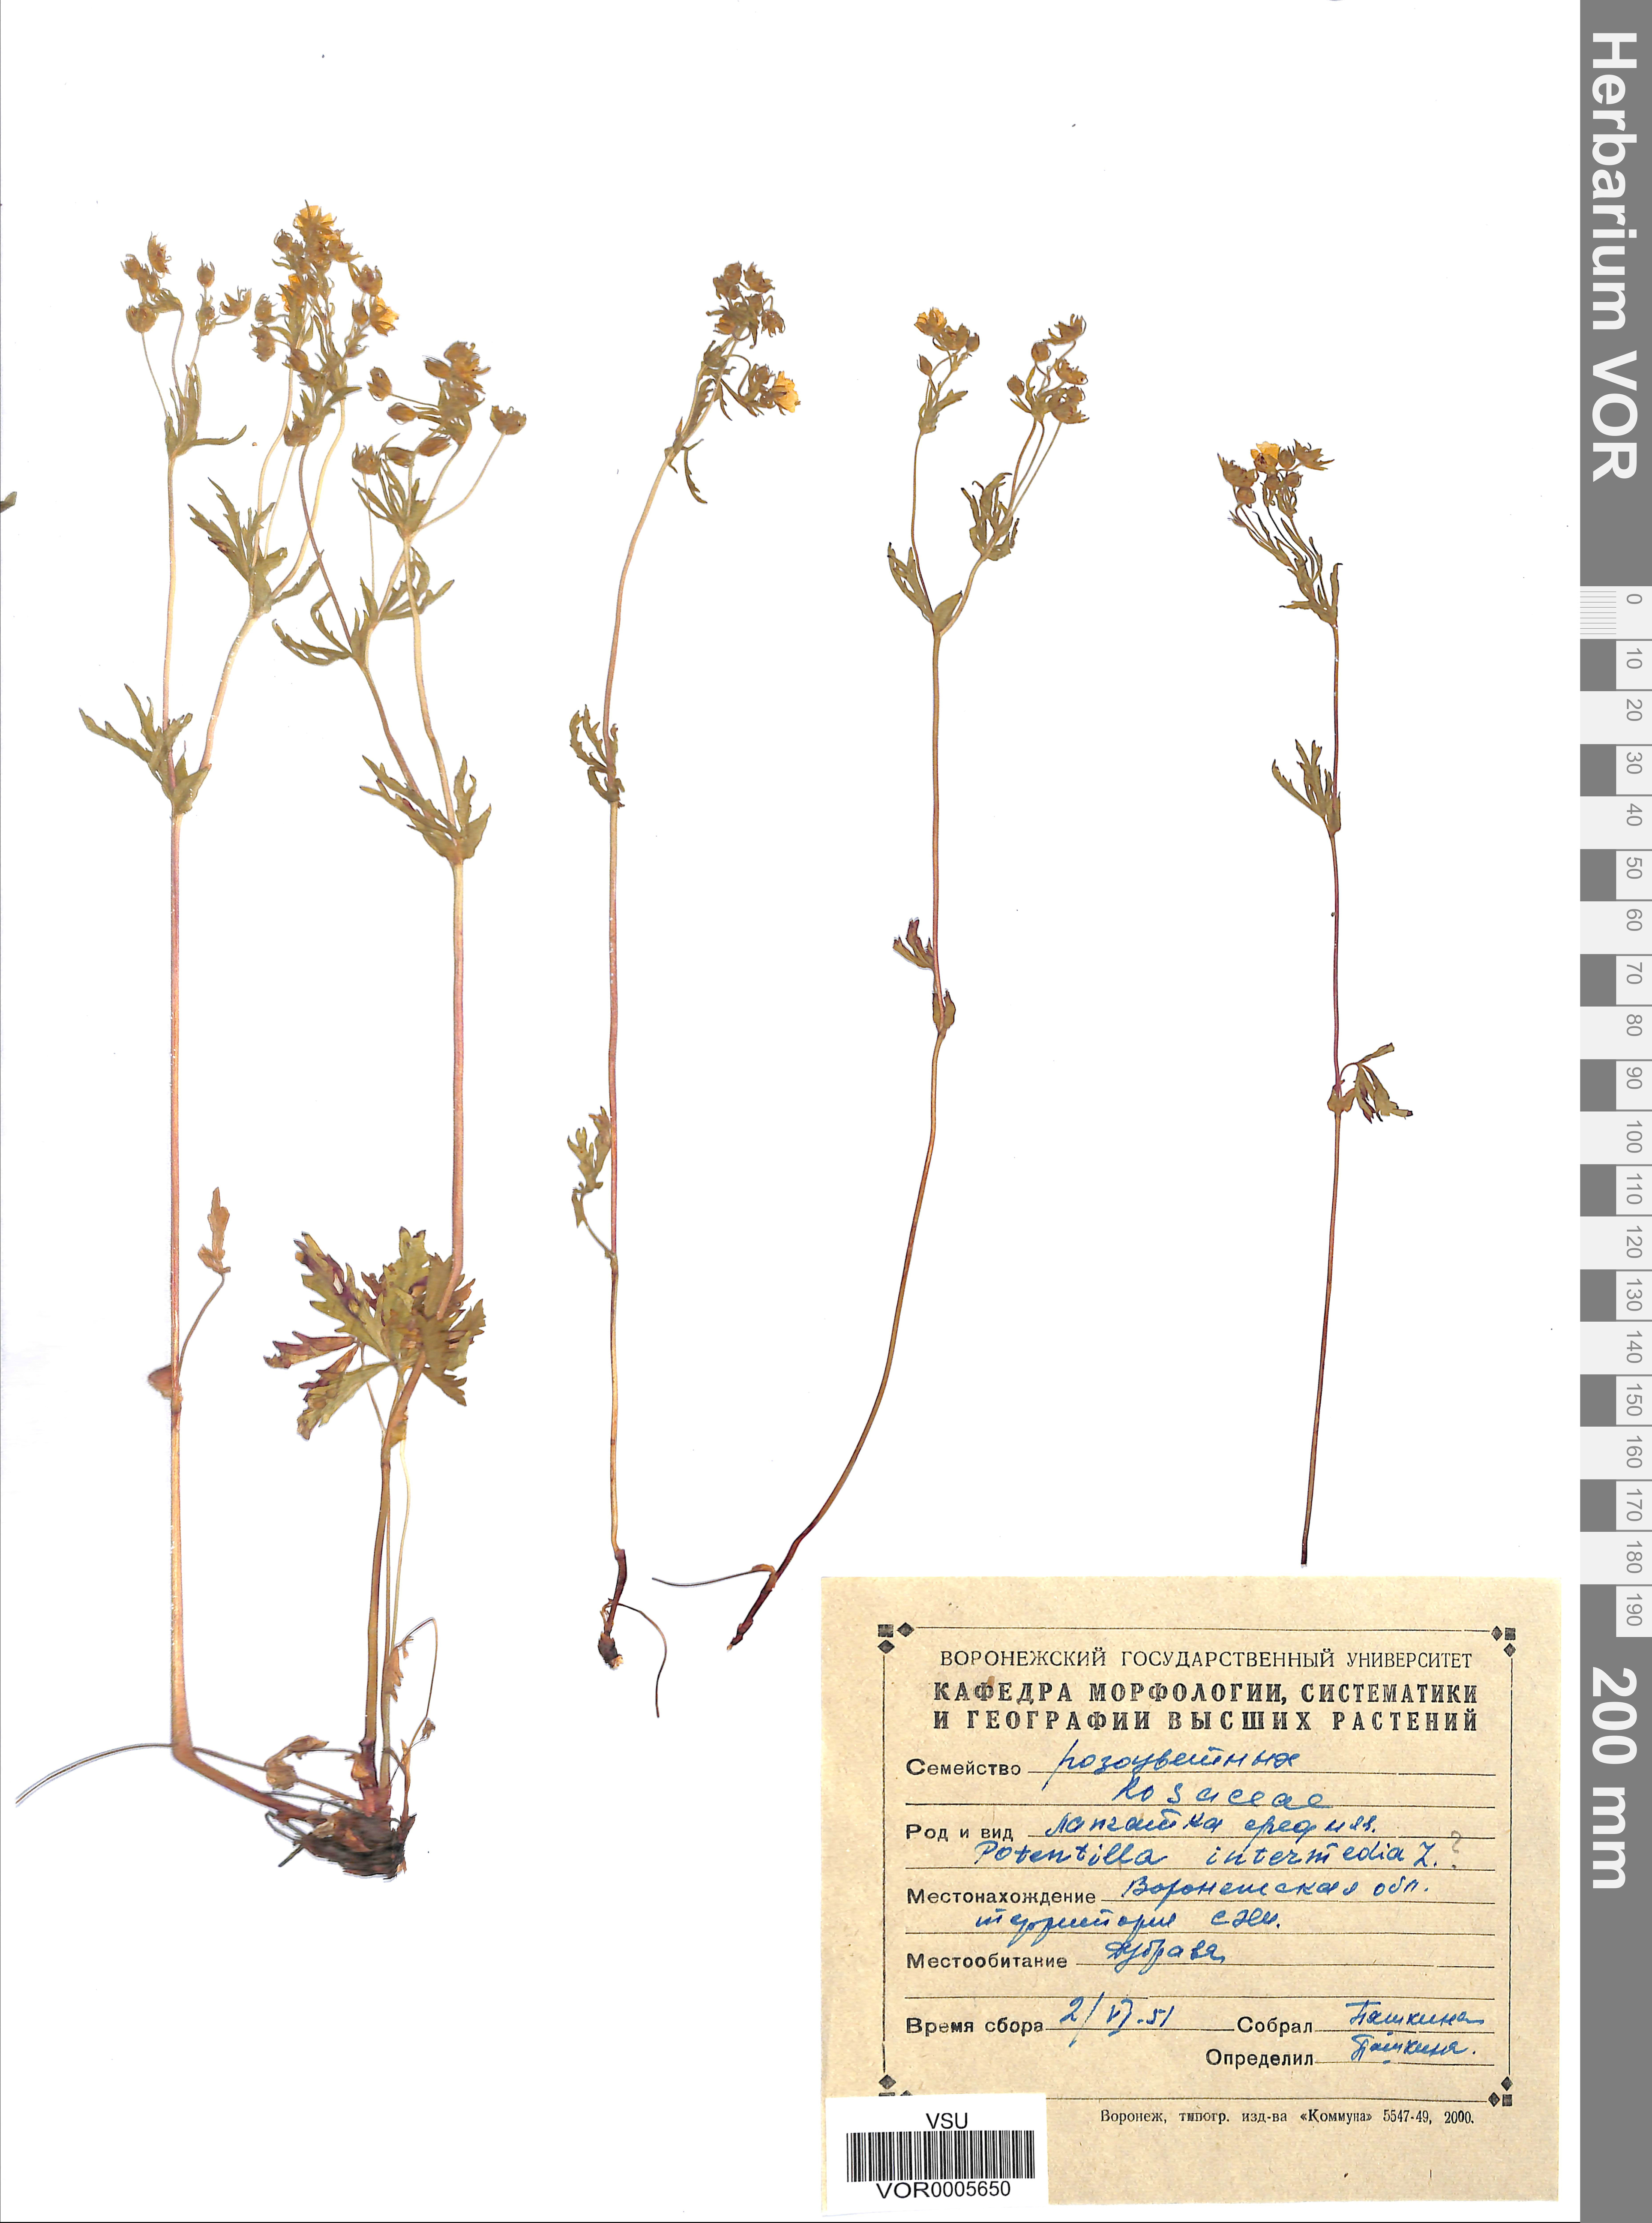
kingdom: Plantae
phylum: Tracheophyta
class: Magnoliopsida
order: Rosales
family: Rosaceae
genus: Potentilla
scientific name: Potentilla norvegica
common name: Ternate-leaved cinquefoil
